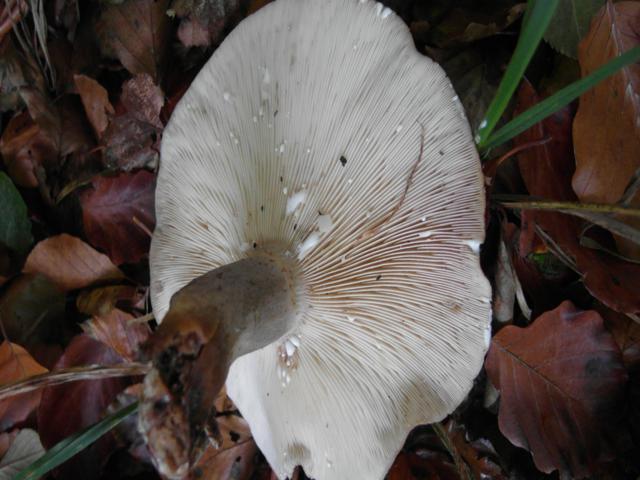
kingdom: Fungi
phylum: Basidiomycota
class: Agaricomycetes
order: Russulales
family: Russulaceae
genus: Lactarius
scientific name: Lactarius blennius
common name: dråbeplettet mælkehat
